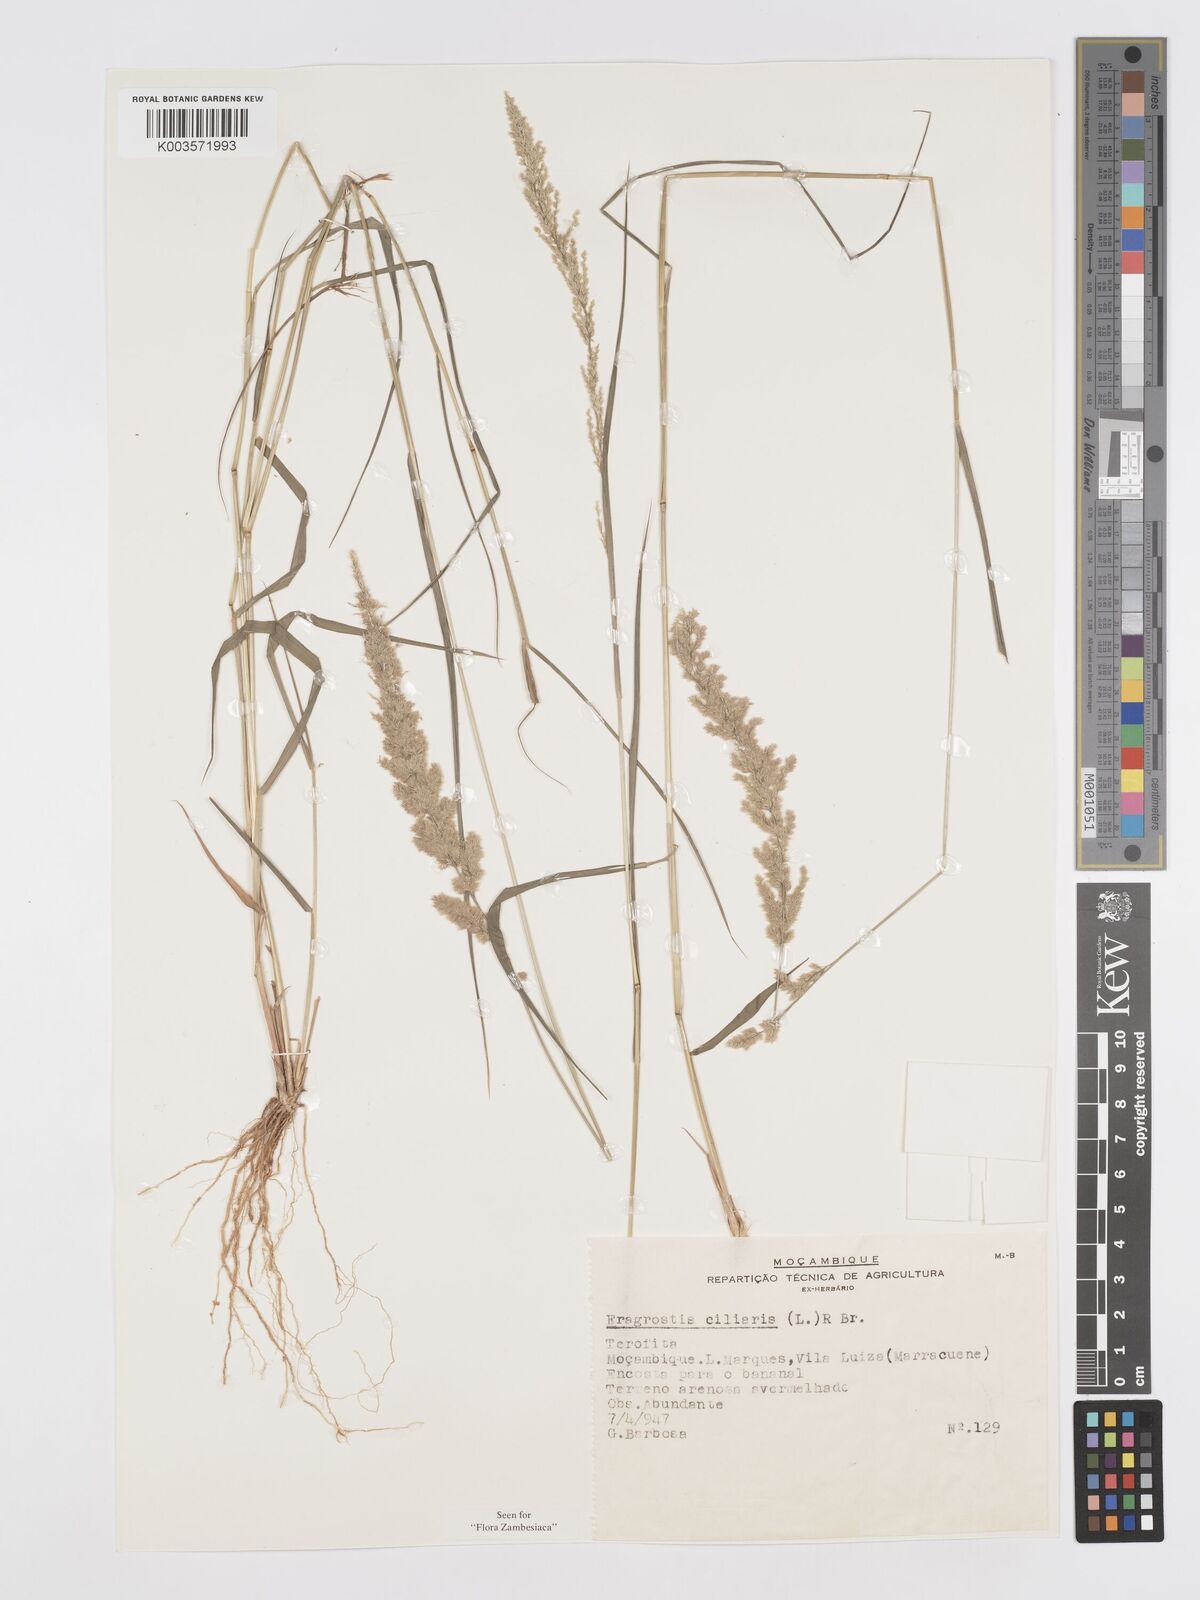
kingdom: Plantae
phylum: Tracheophyta
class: Liliopsida
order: Poales
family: Poaceae
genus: Eragrostis
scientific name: Eragrostis ciliaris
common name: Gophertail lovegrass
